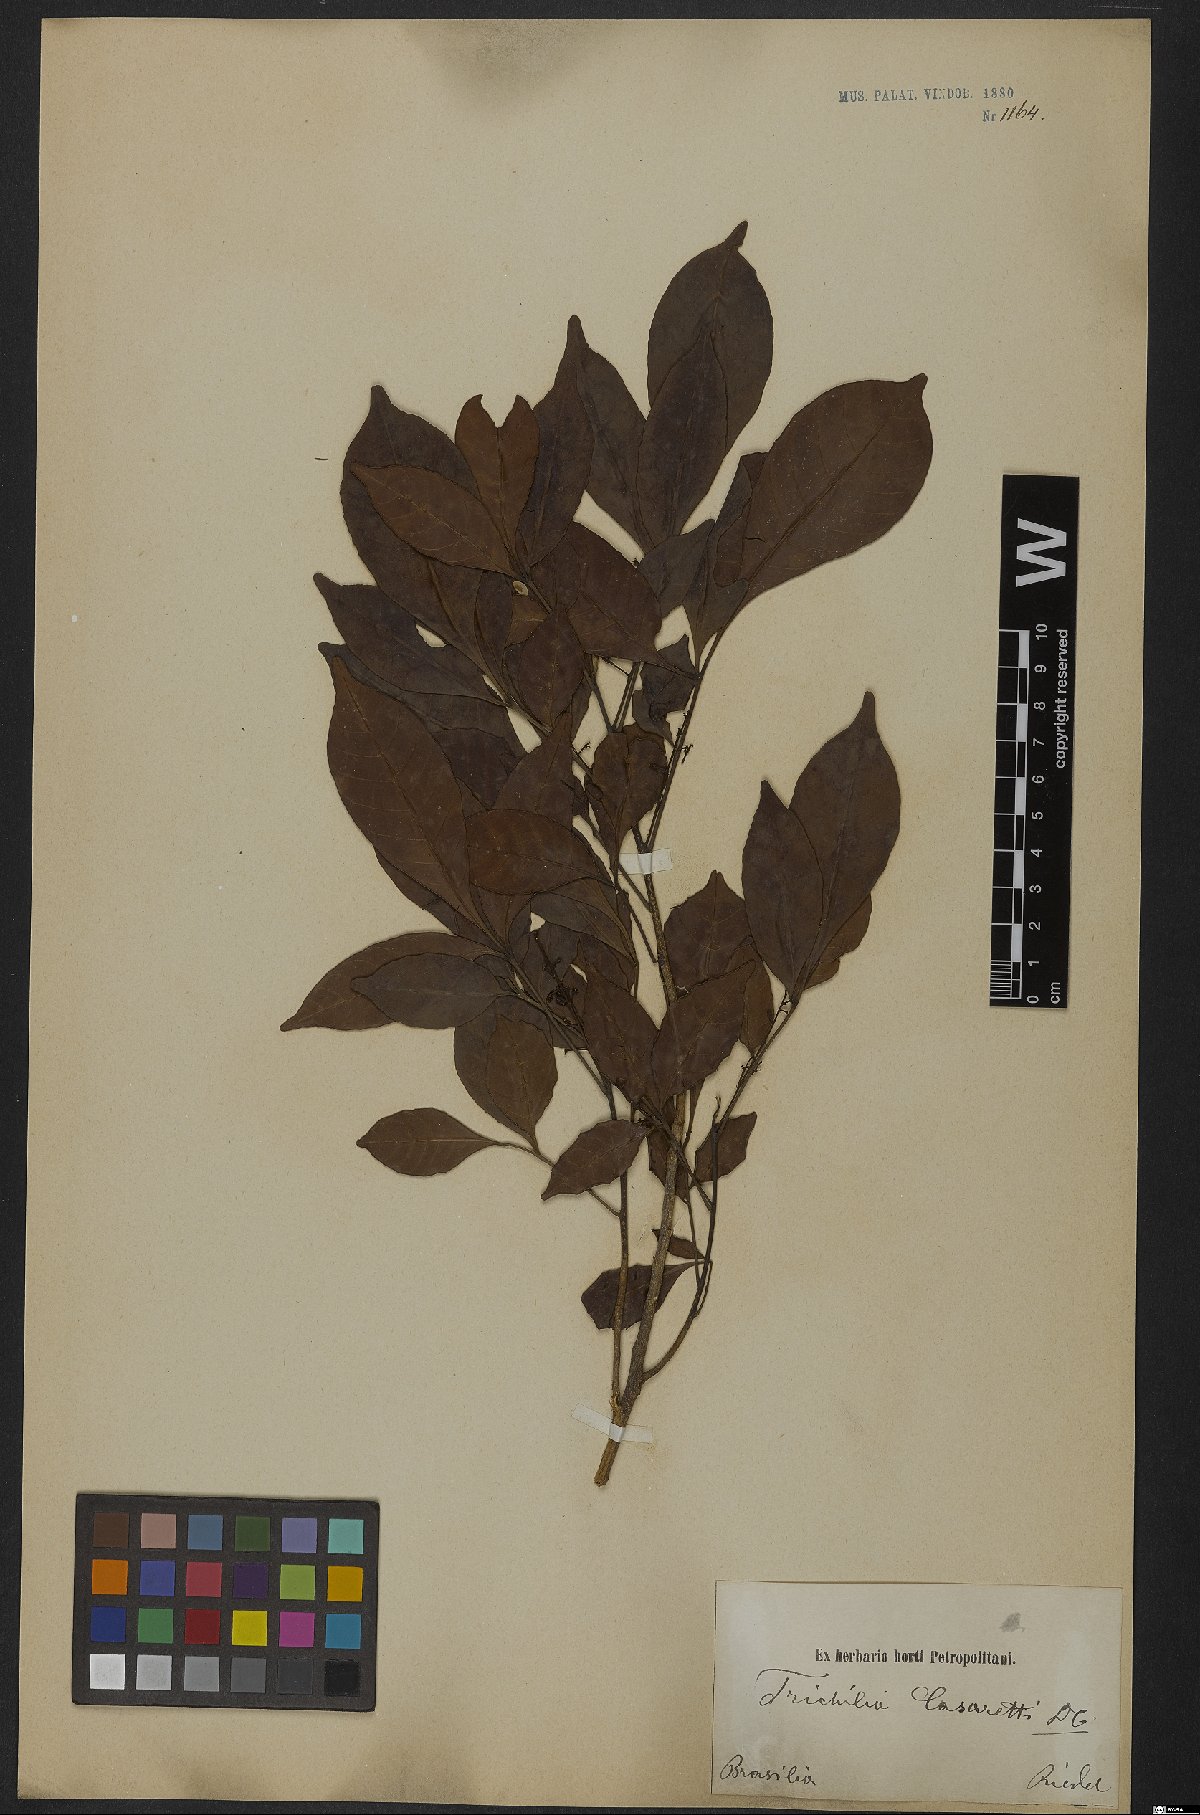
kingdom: Plantae
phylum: Tracheophyta
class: Magnoliopsida
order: Sapindales
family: Meliaceae
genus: Trichilia
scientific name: Trichilia casarettoi
